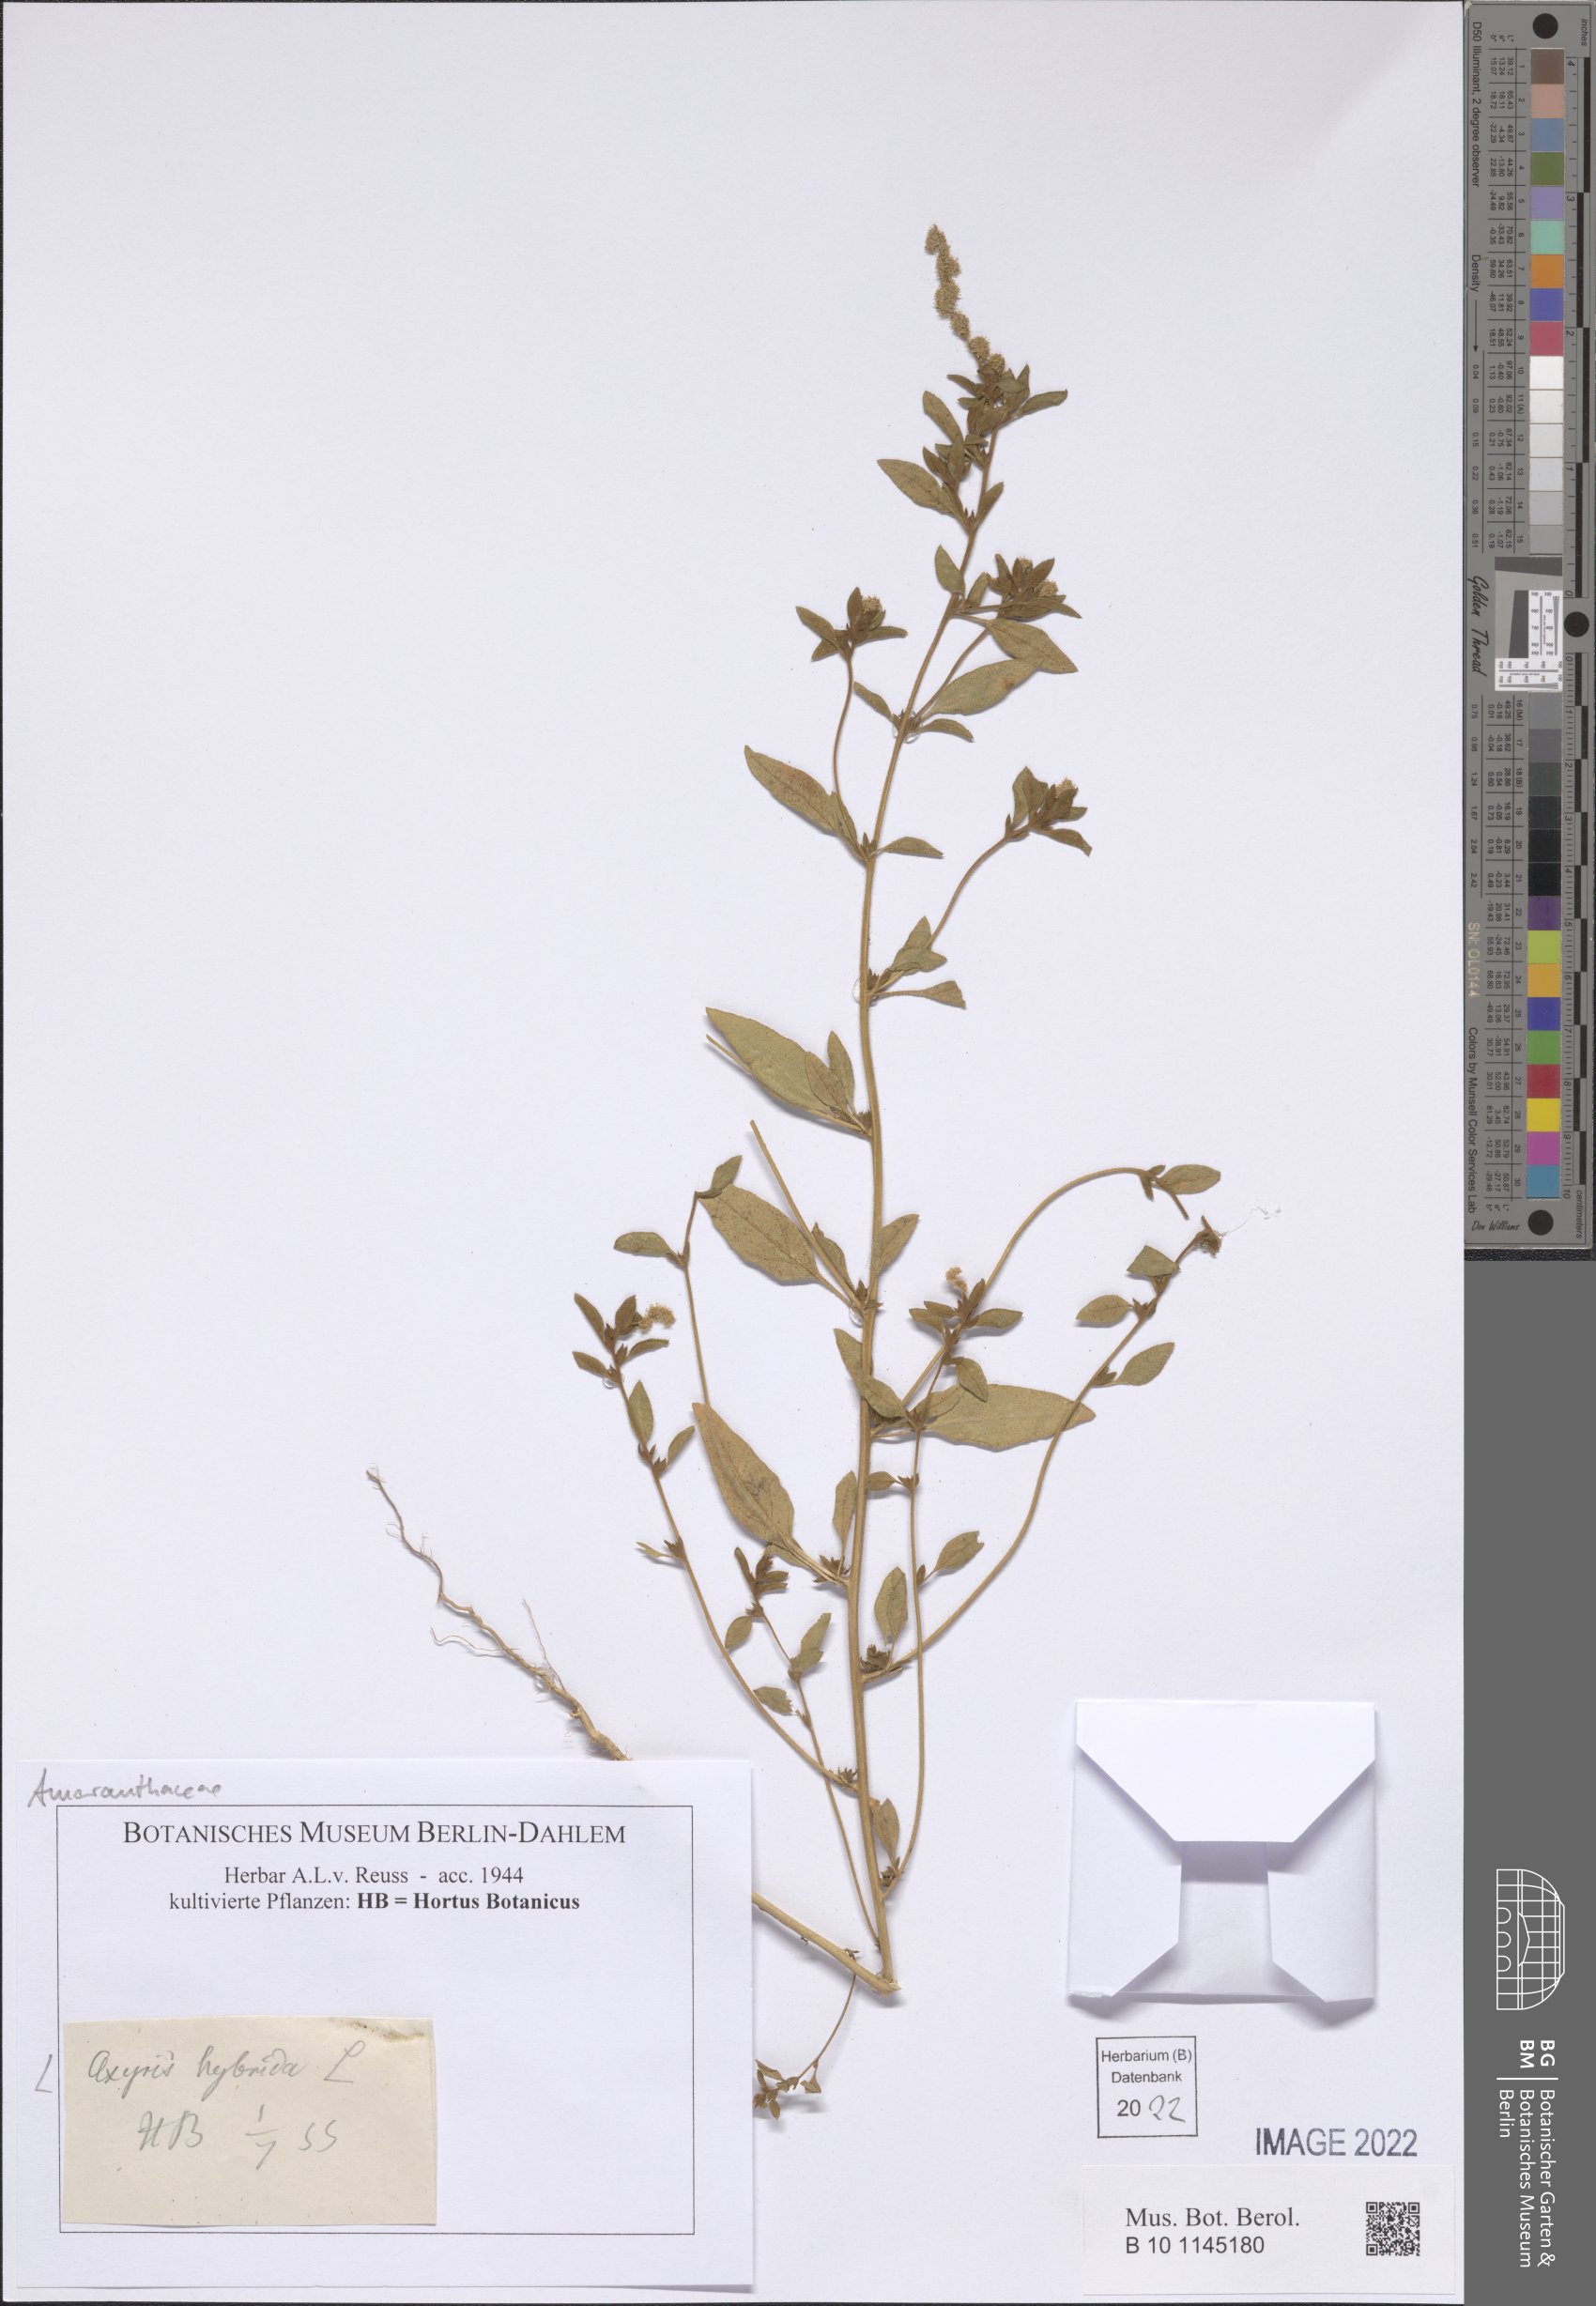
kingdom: Plantae
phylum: Tracheophyta
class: Magnoliopsida
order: Caryophyllales
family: Amaranthaceae
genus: Axyris
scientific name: Axyris hybrida
